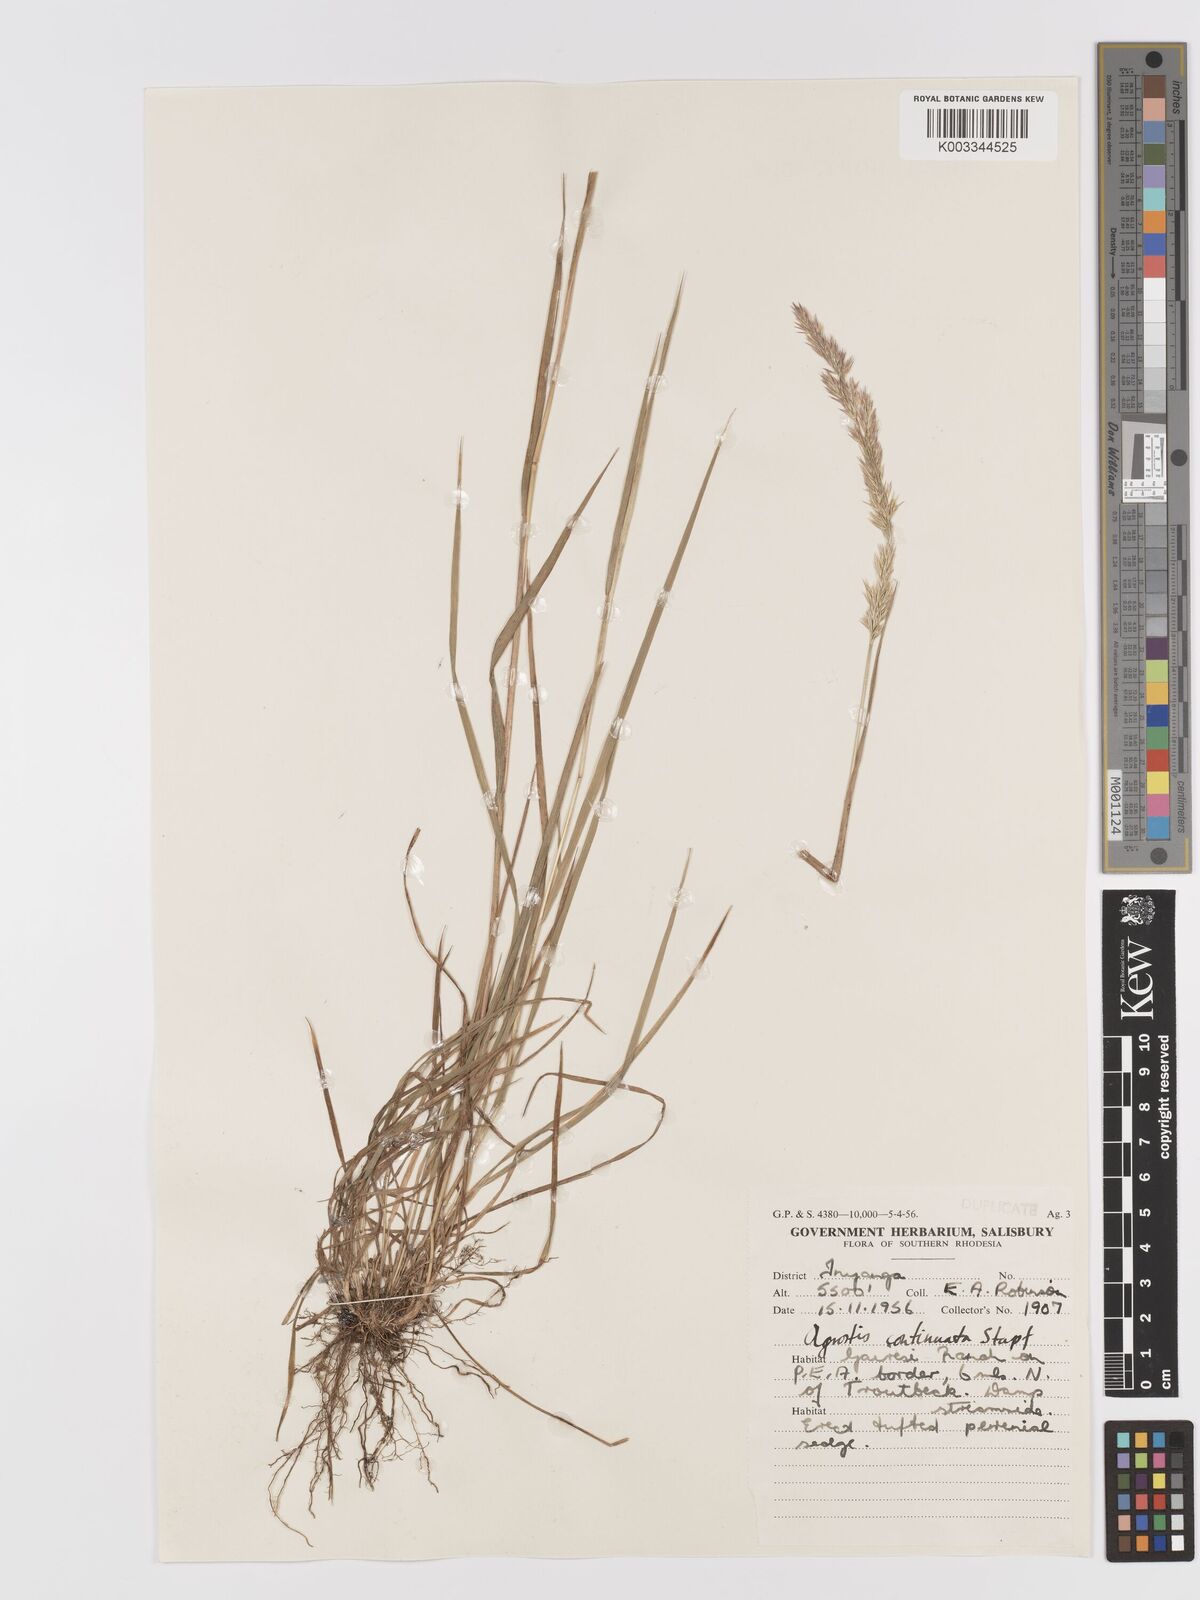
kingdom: Plantae
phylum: Tracheophyta
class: Liliopsida
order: Poales
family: Poaceae
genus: Agrostis
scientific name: Agrostis continuata
